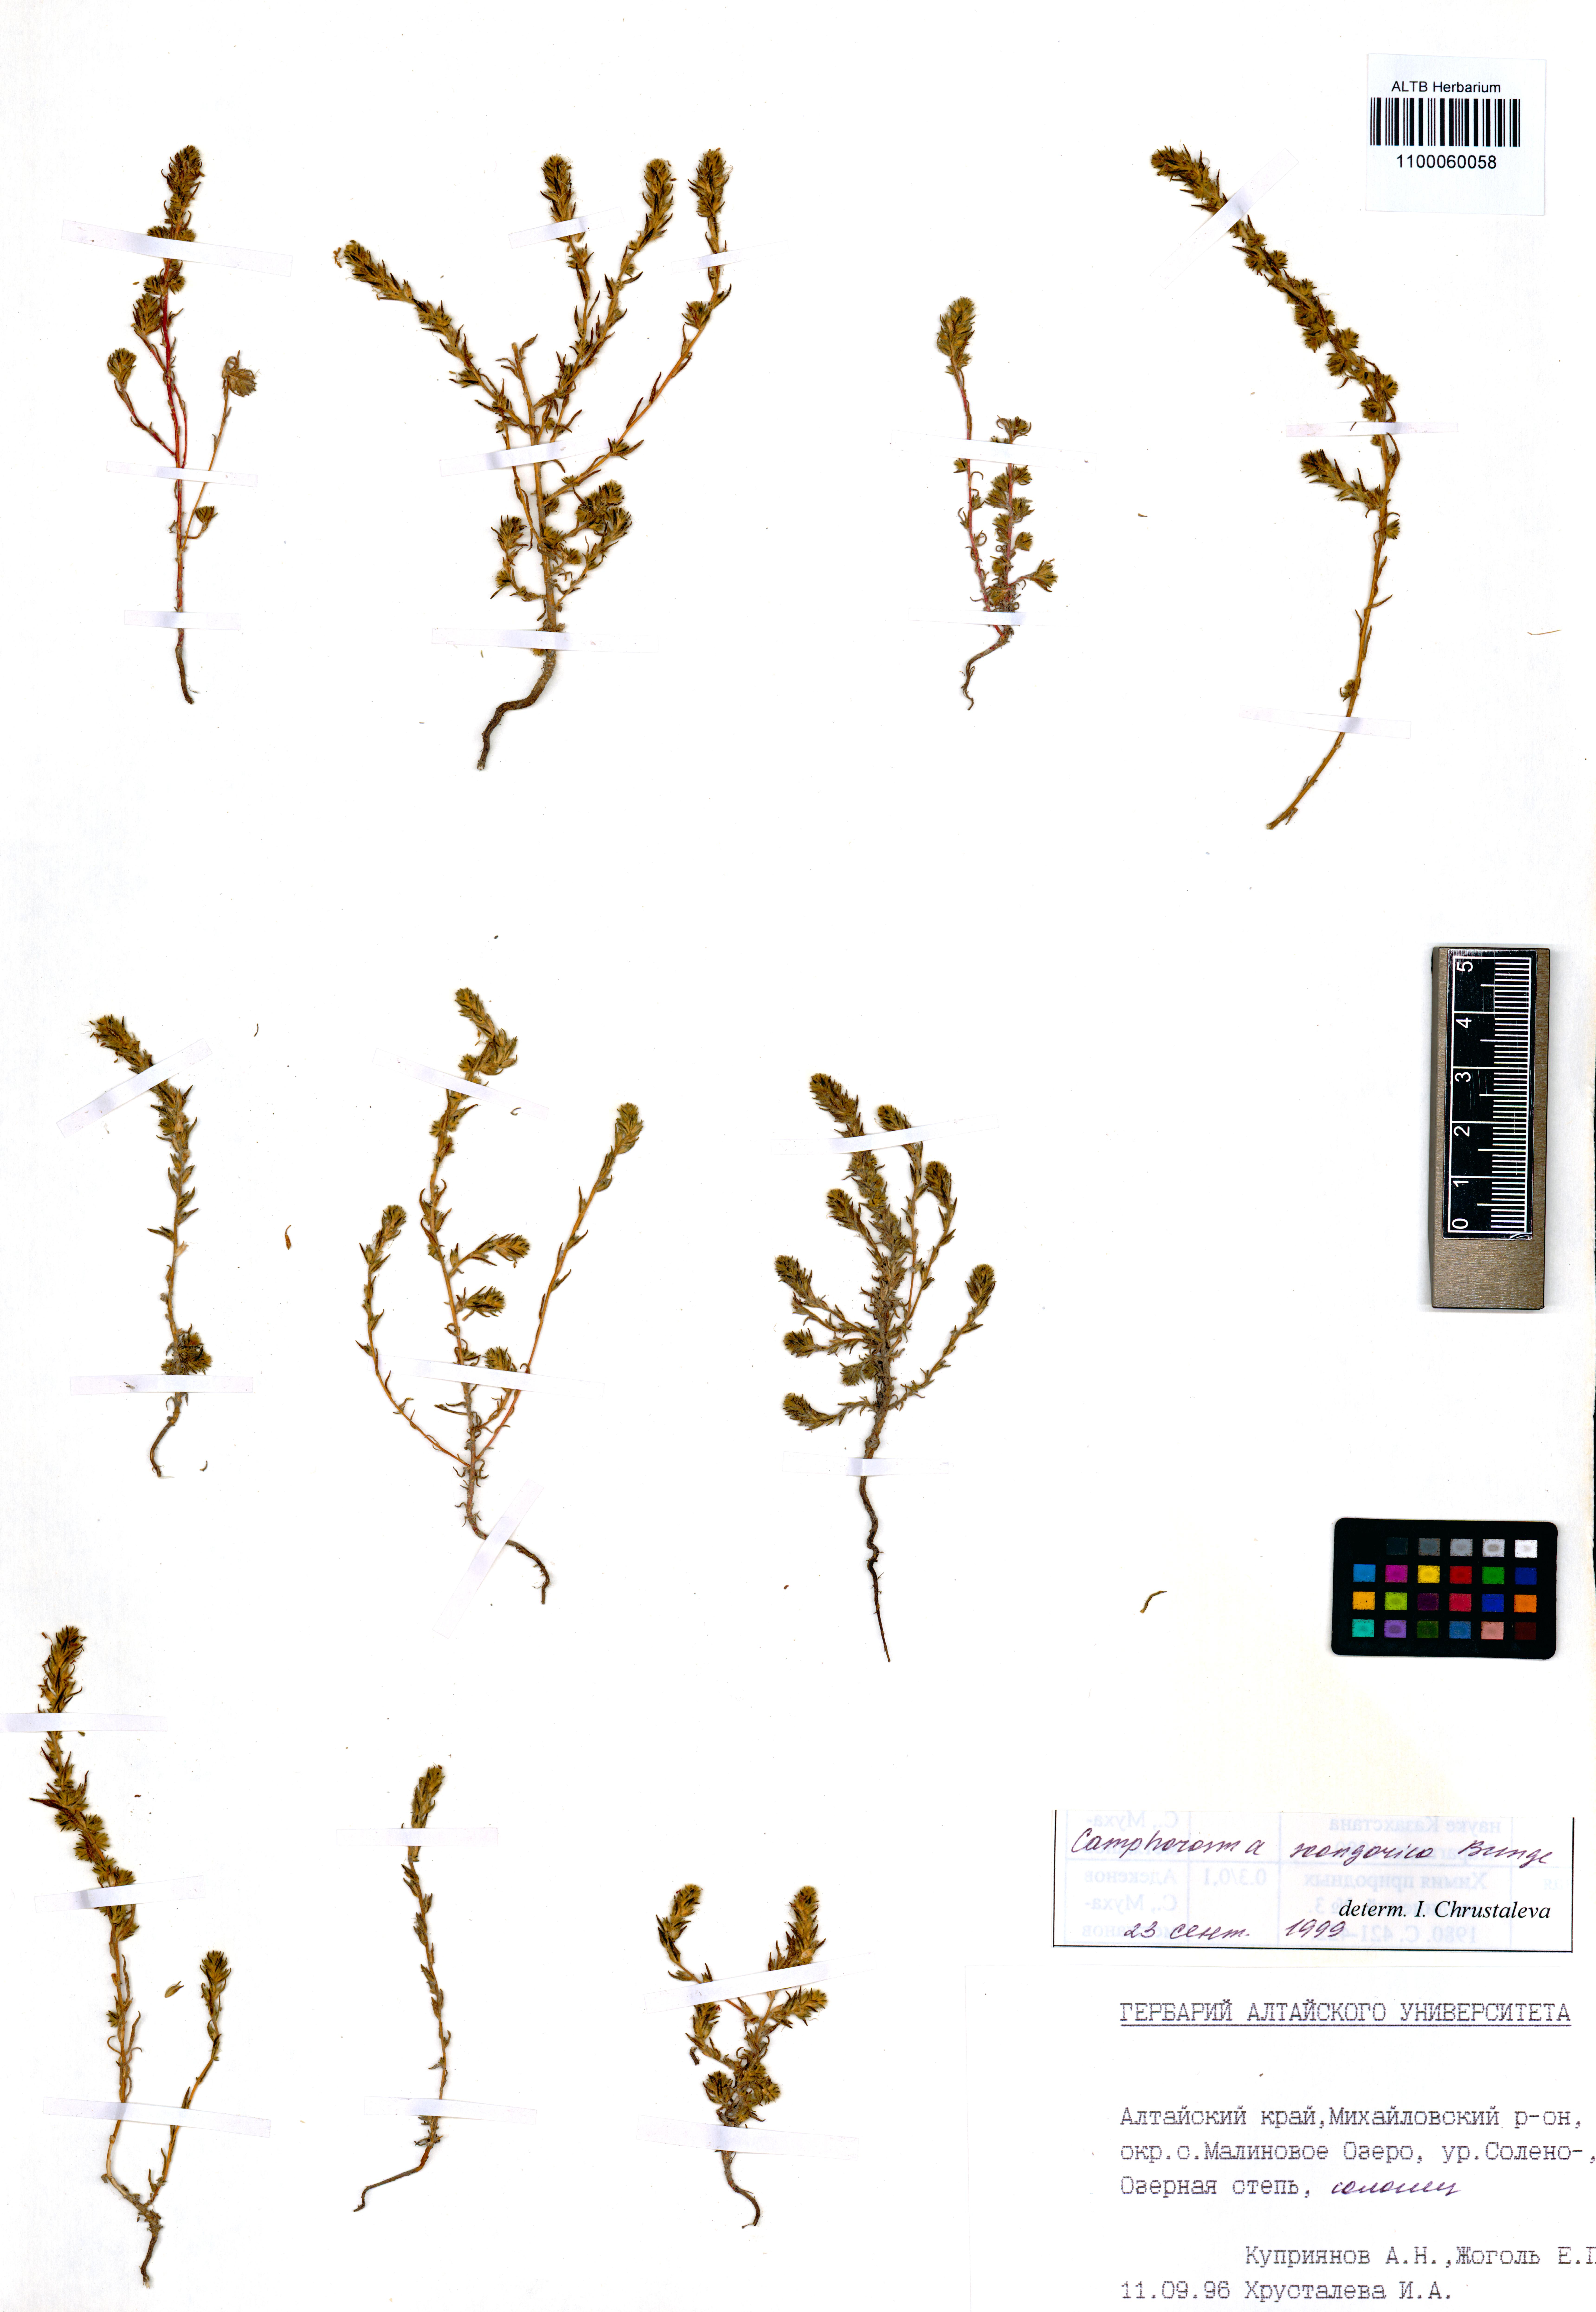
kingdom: Plantae
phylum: Tracheophyta
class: Magnoliopsida
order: Caryophyllales
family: Amaranthaceae
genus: Camphorosma
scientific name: Camphorosma songorica
